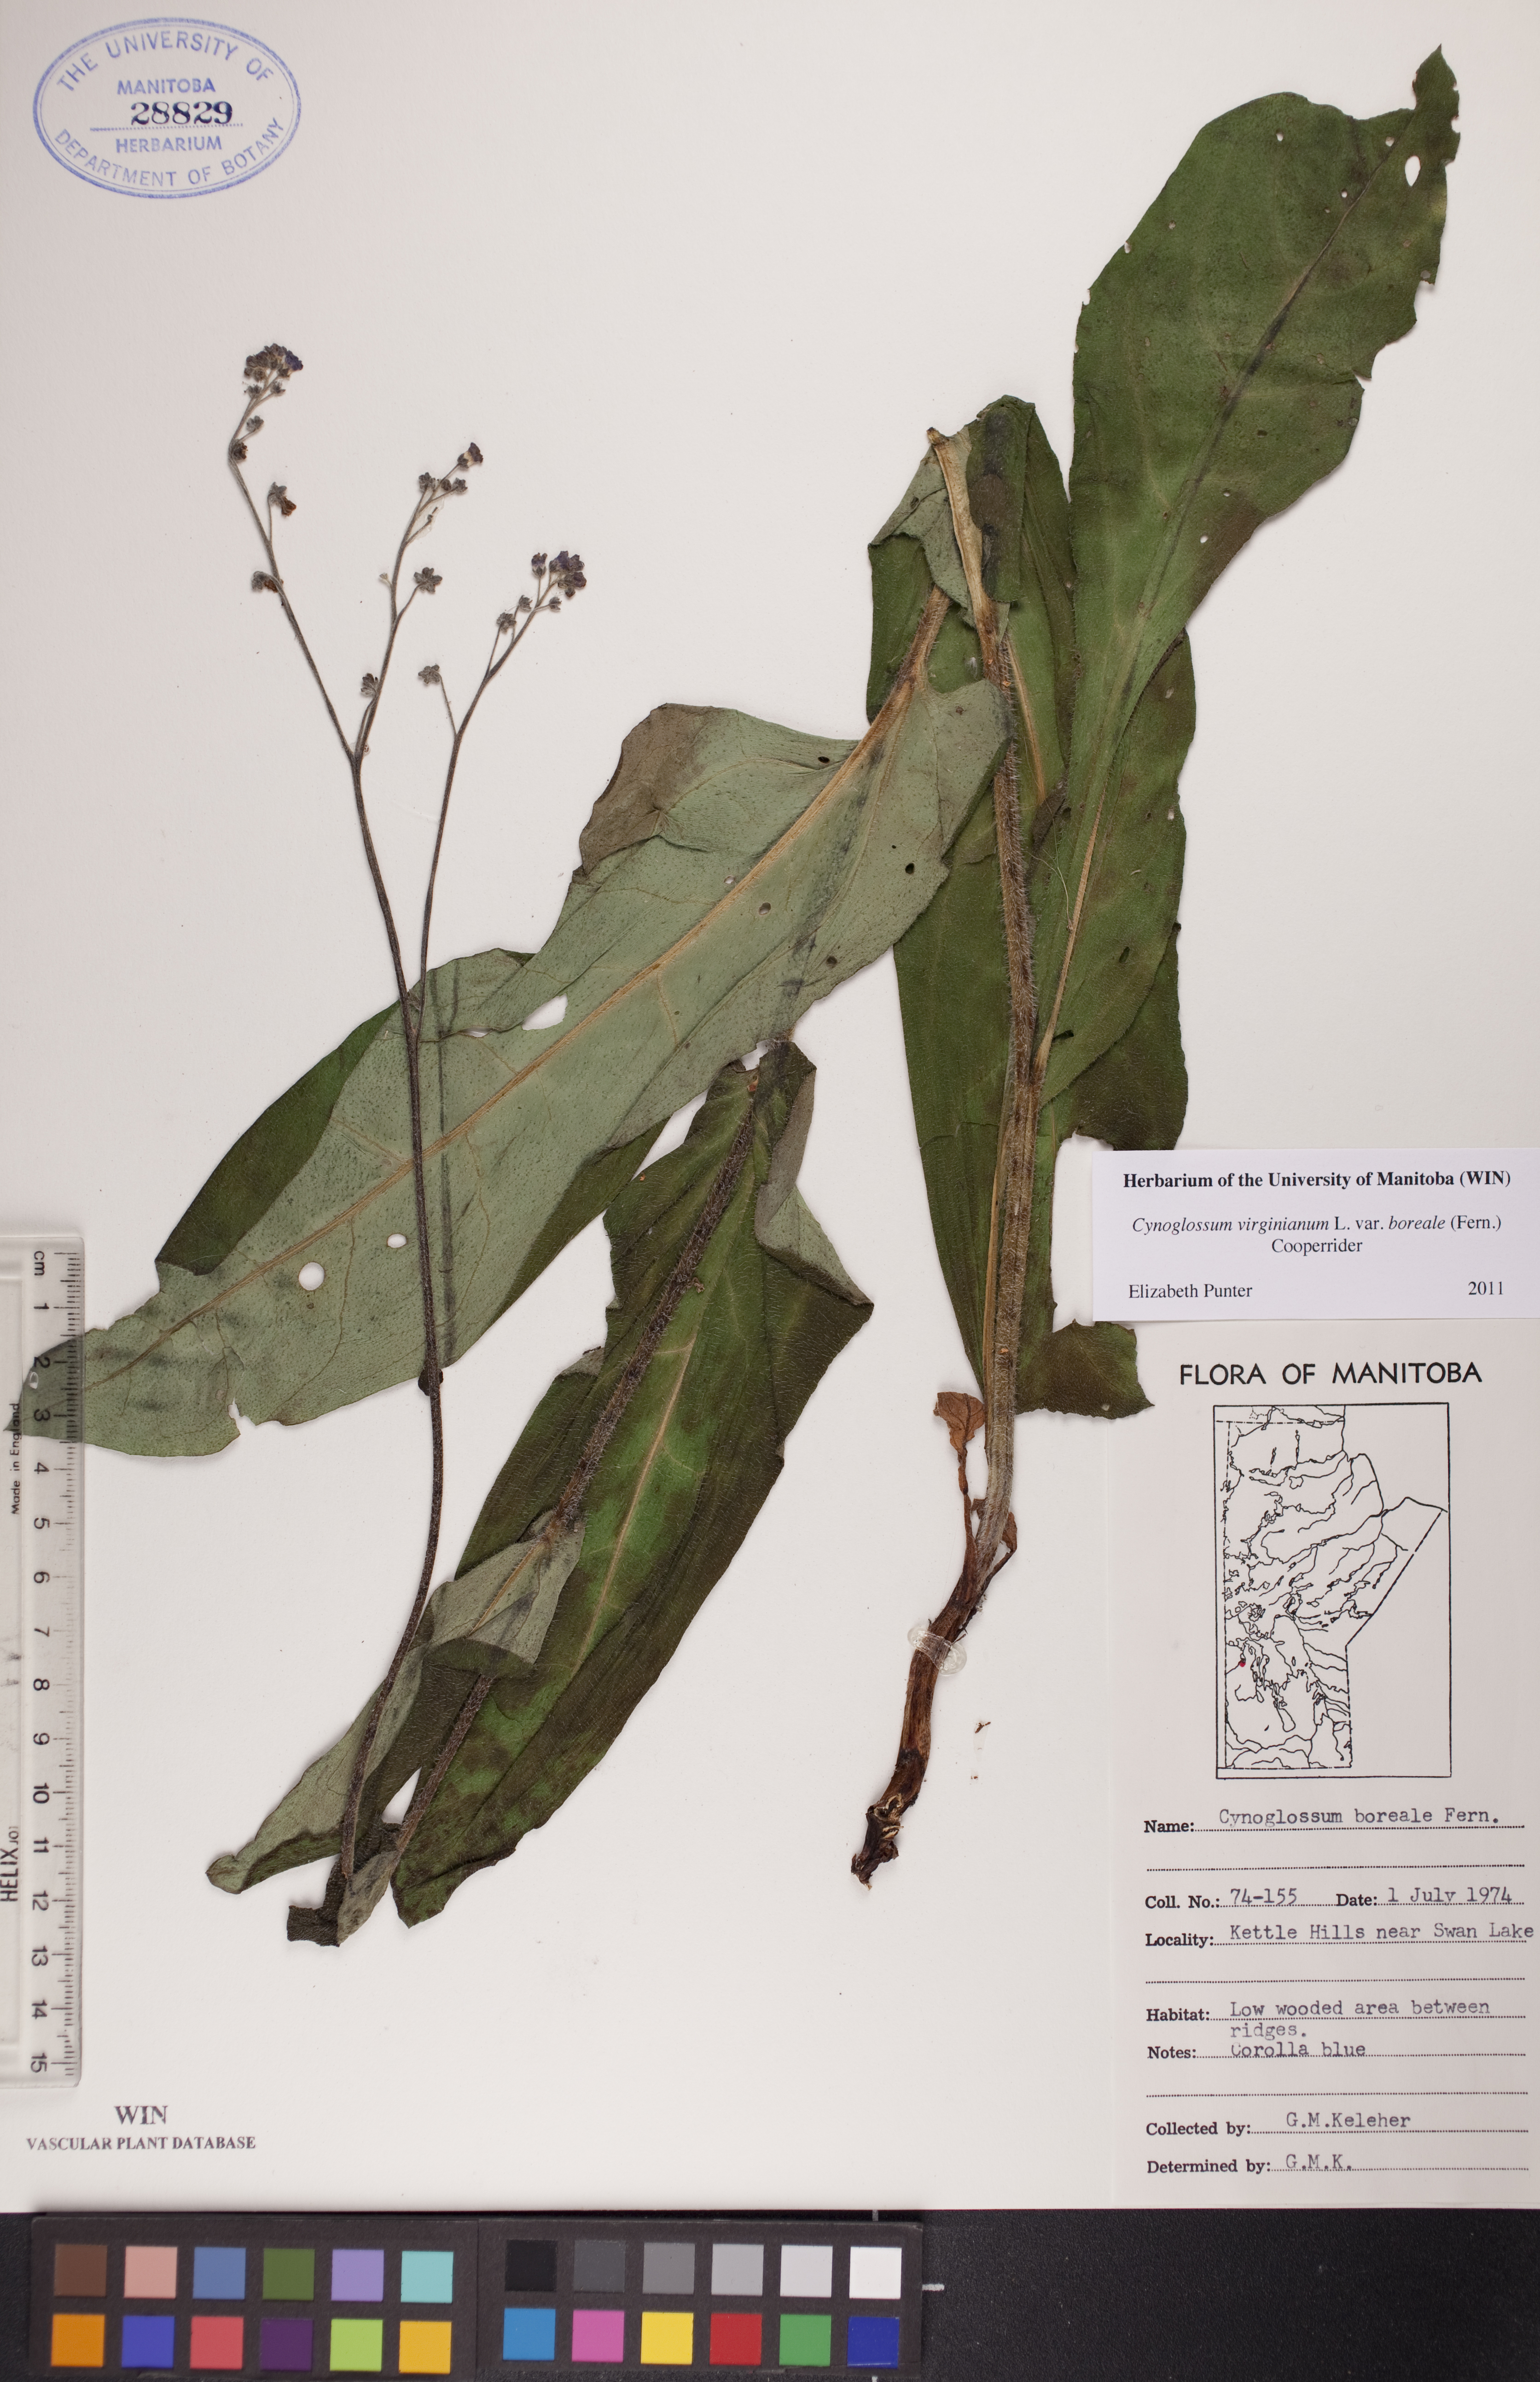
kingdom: Plantae
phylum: Tracheophyta
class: Magnoliopsida
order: Boraginales
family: Boraginaceae
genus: Andersonglossum
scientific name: Andersonglossum boreale
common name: Northern hound's-tongue
